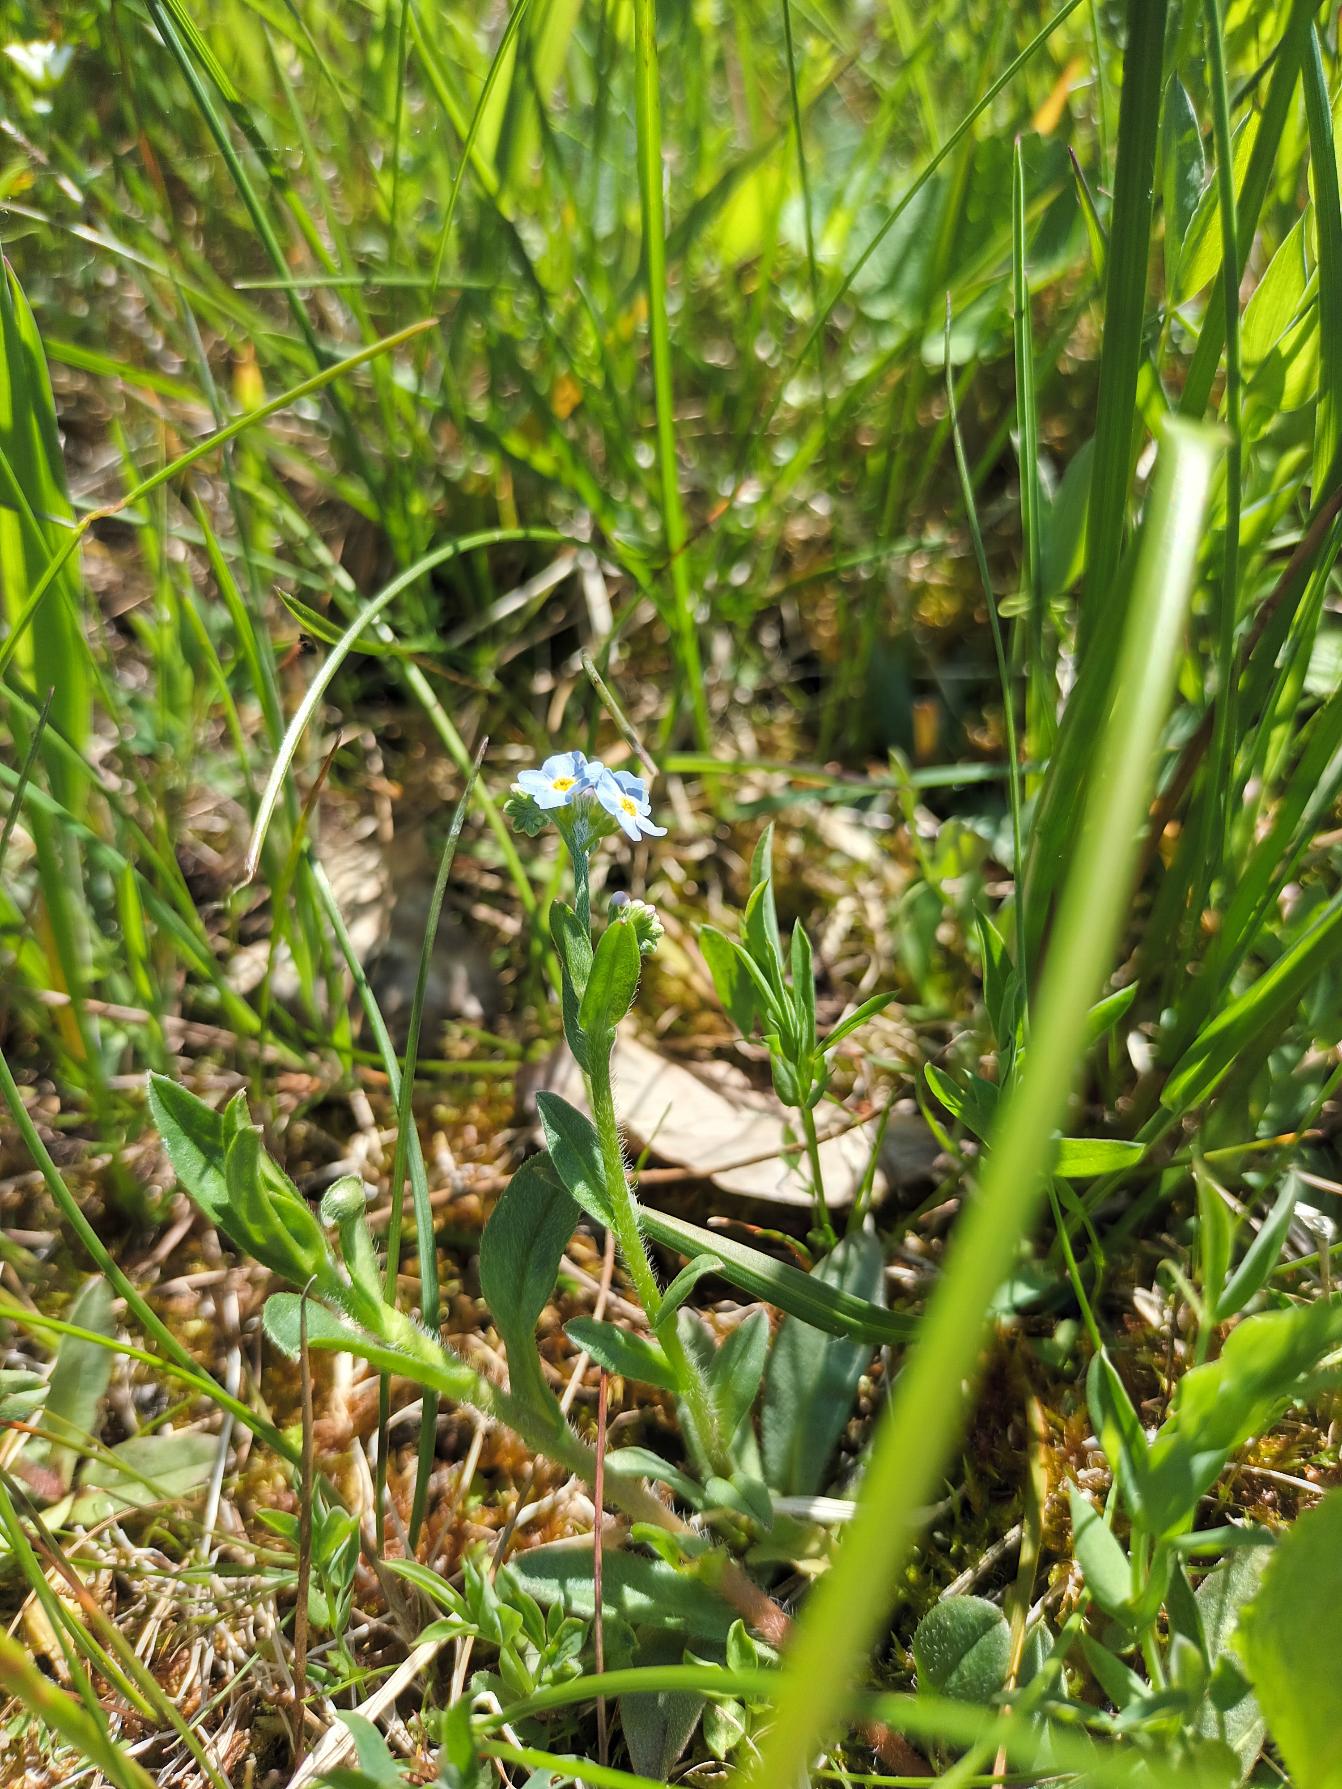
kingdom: Plantae
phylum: Tracheophyta
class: Magnoliopsida
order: Boraginales
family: Boraginaceae
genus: Myosotis
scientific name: Myosotis scorpioides
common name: Eng-forglemmigej
